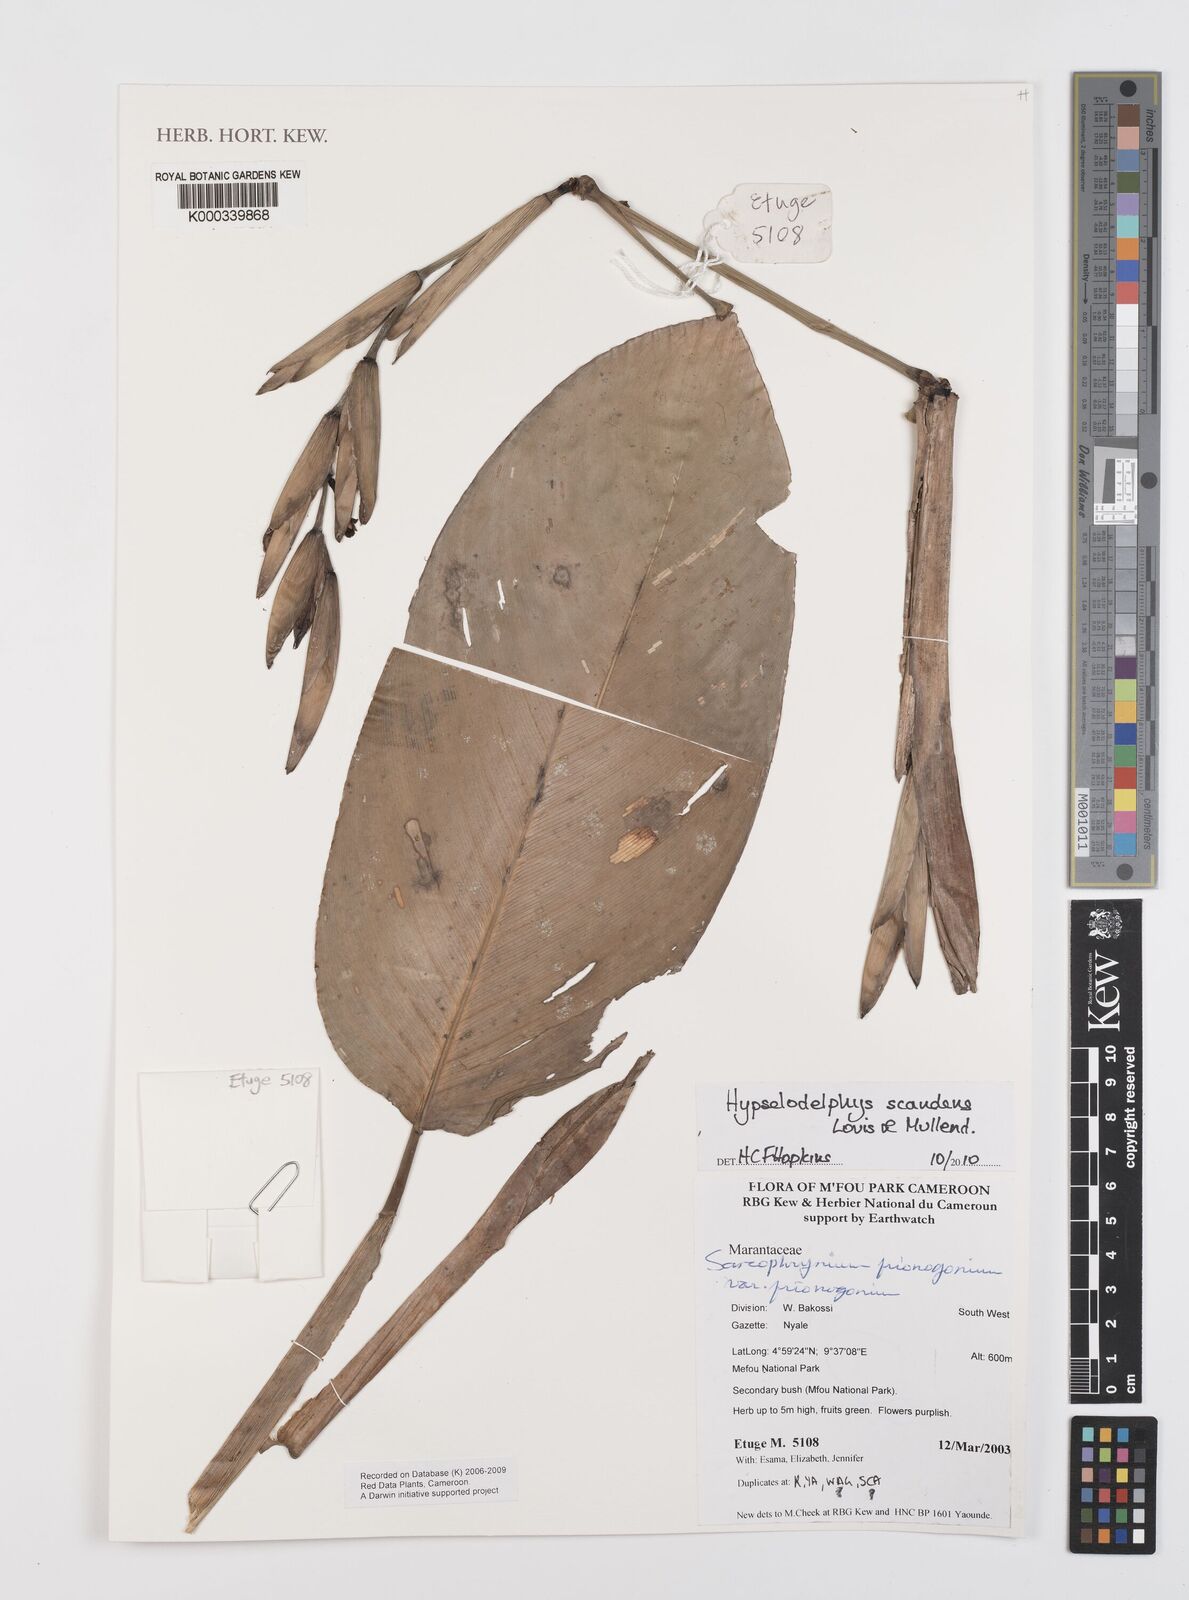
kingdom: Plantae
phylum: Tracheophyta
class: Liliopsida
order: Zingiberales
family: Marantaceae
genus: Hypselodelphys
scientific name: Hypselodelphys scandens
